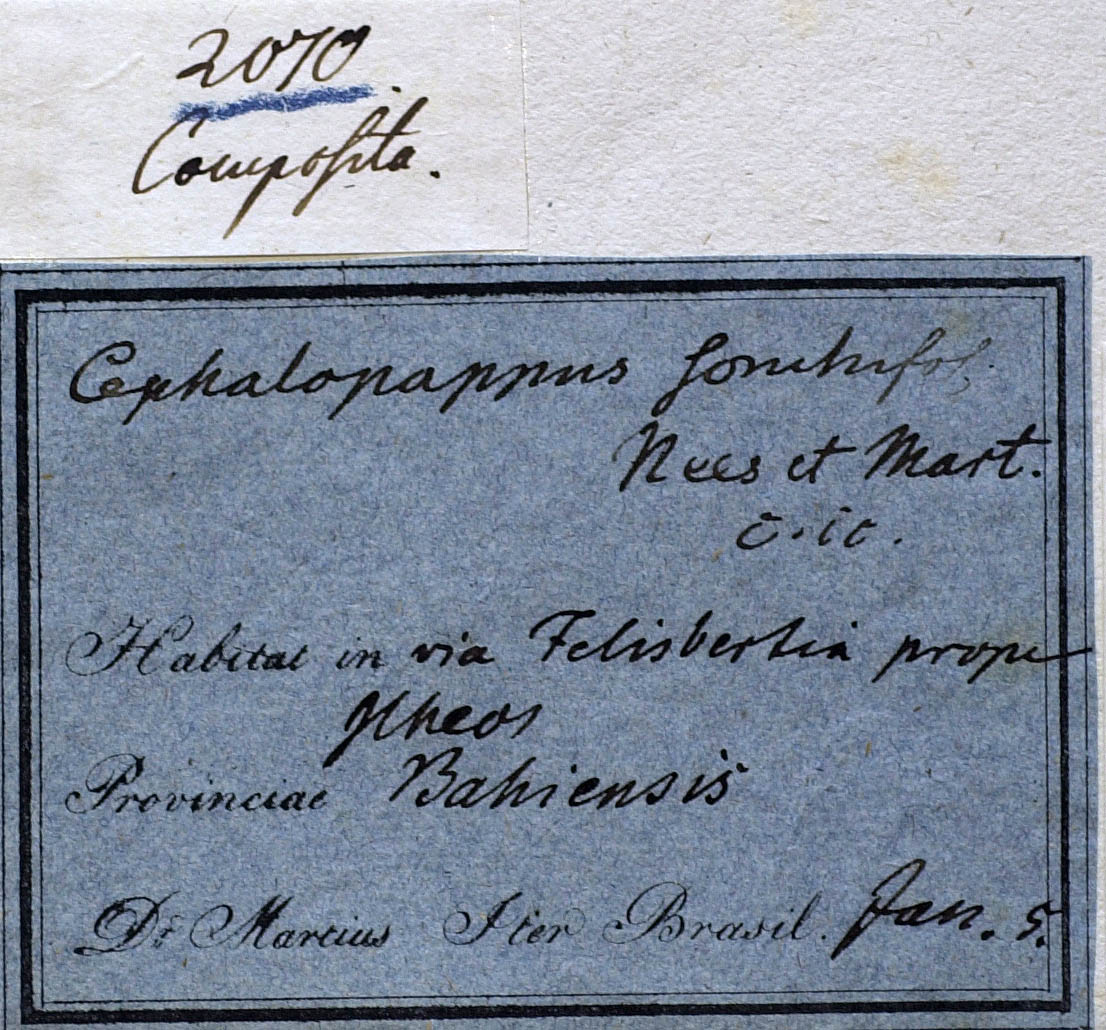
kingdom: Plantae
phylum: Tracheophyta
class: Magnoliopsida
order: Asterales
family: Asteraceae
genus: Cephalopappus
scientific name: Cephalopappus sonchifolius
